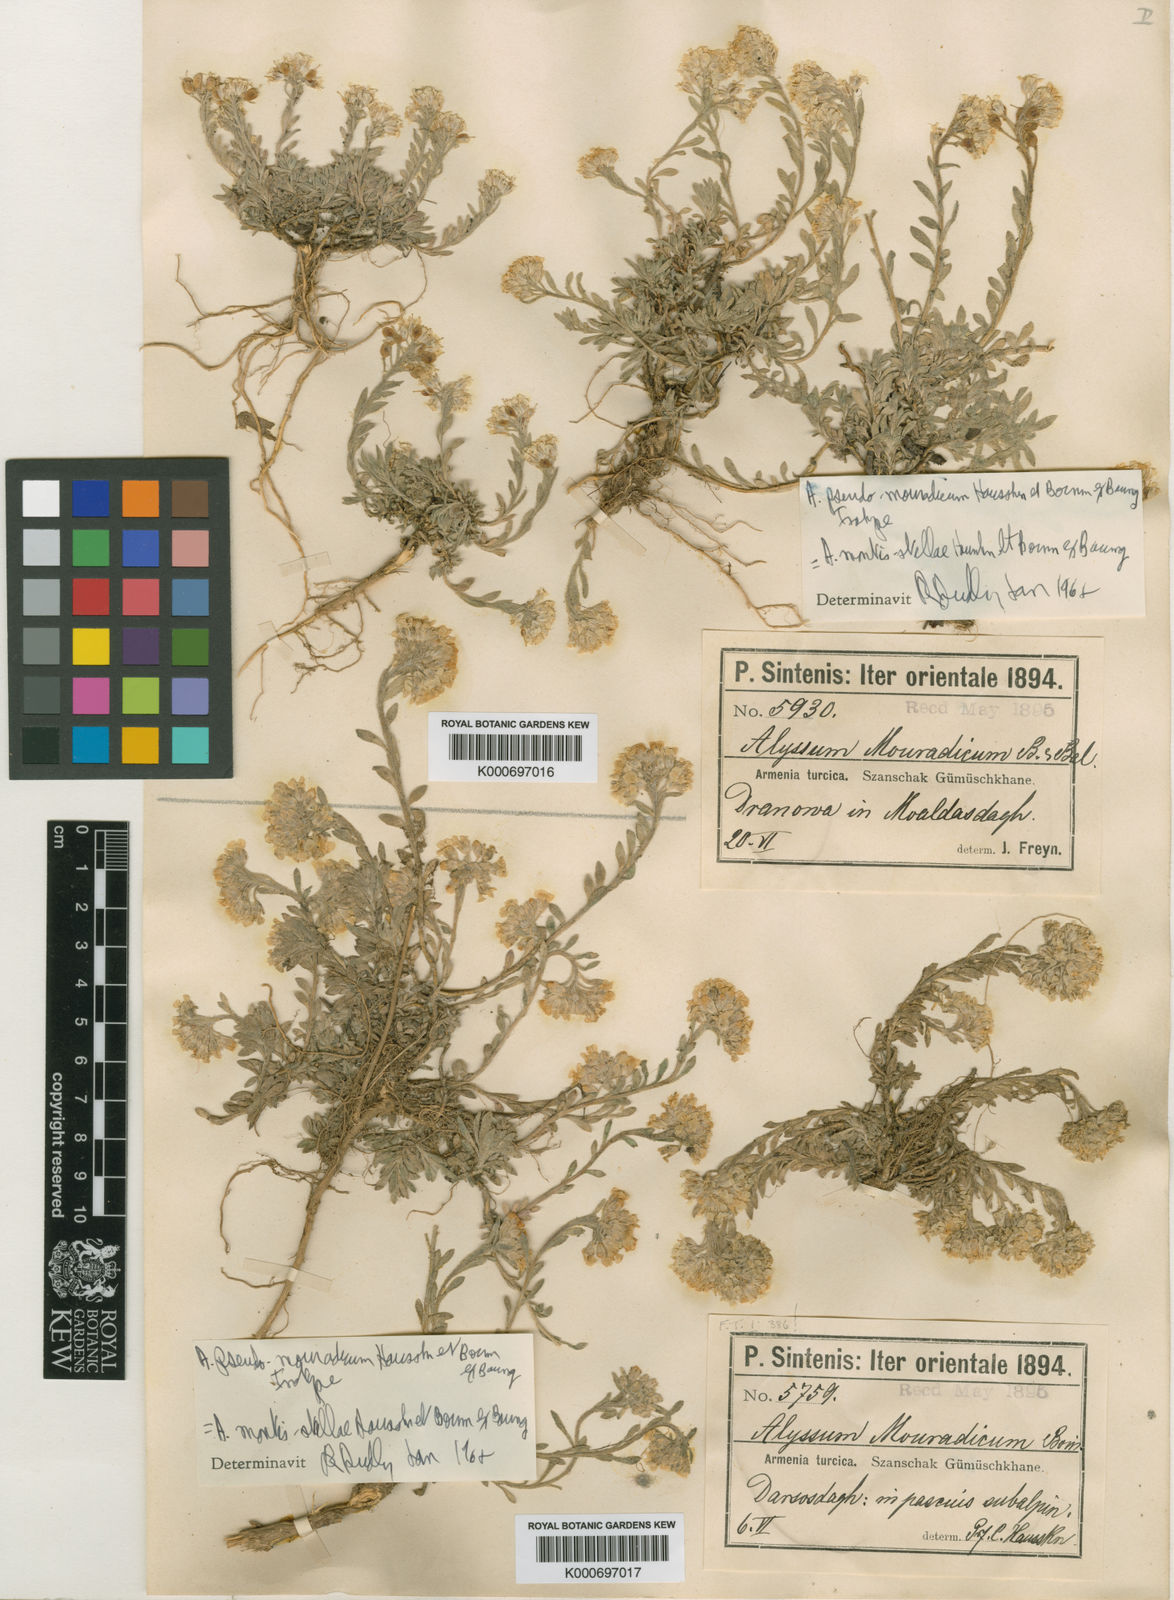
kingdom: Plantae
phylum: Tracheophyta
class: Magnoliopsida
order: Brassicales
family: Brassicaceae
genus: Alyssum
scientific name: Alyssum pseudomouradicum
